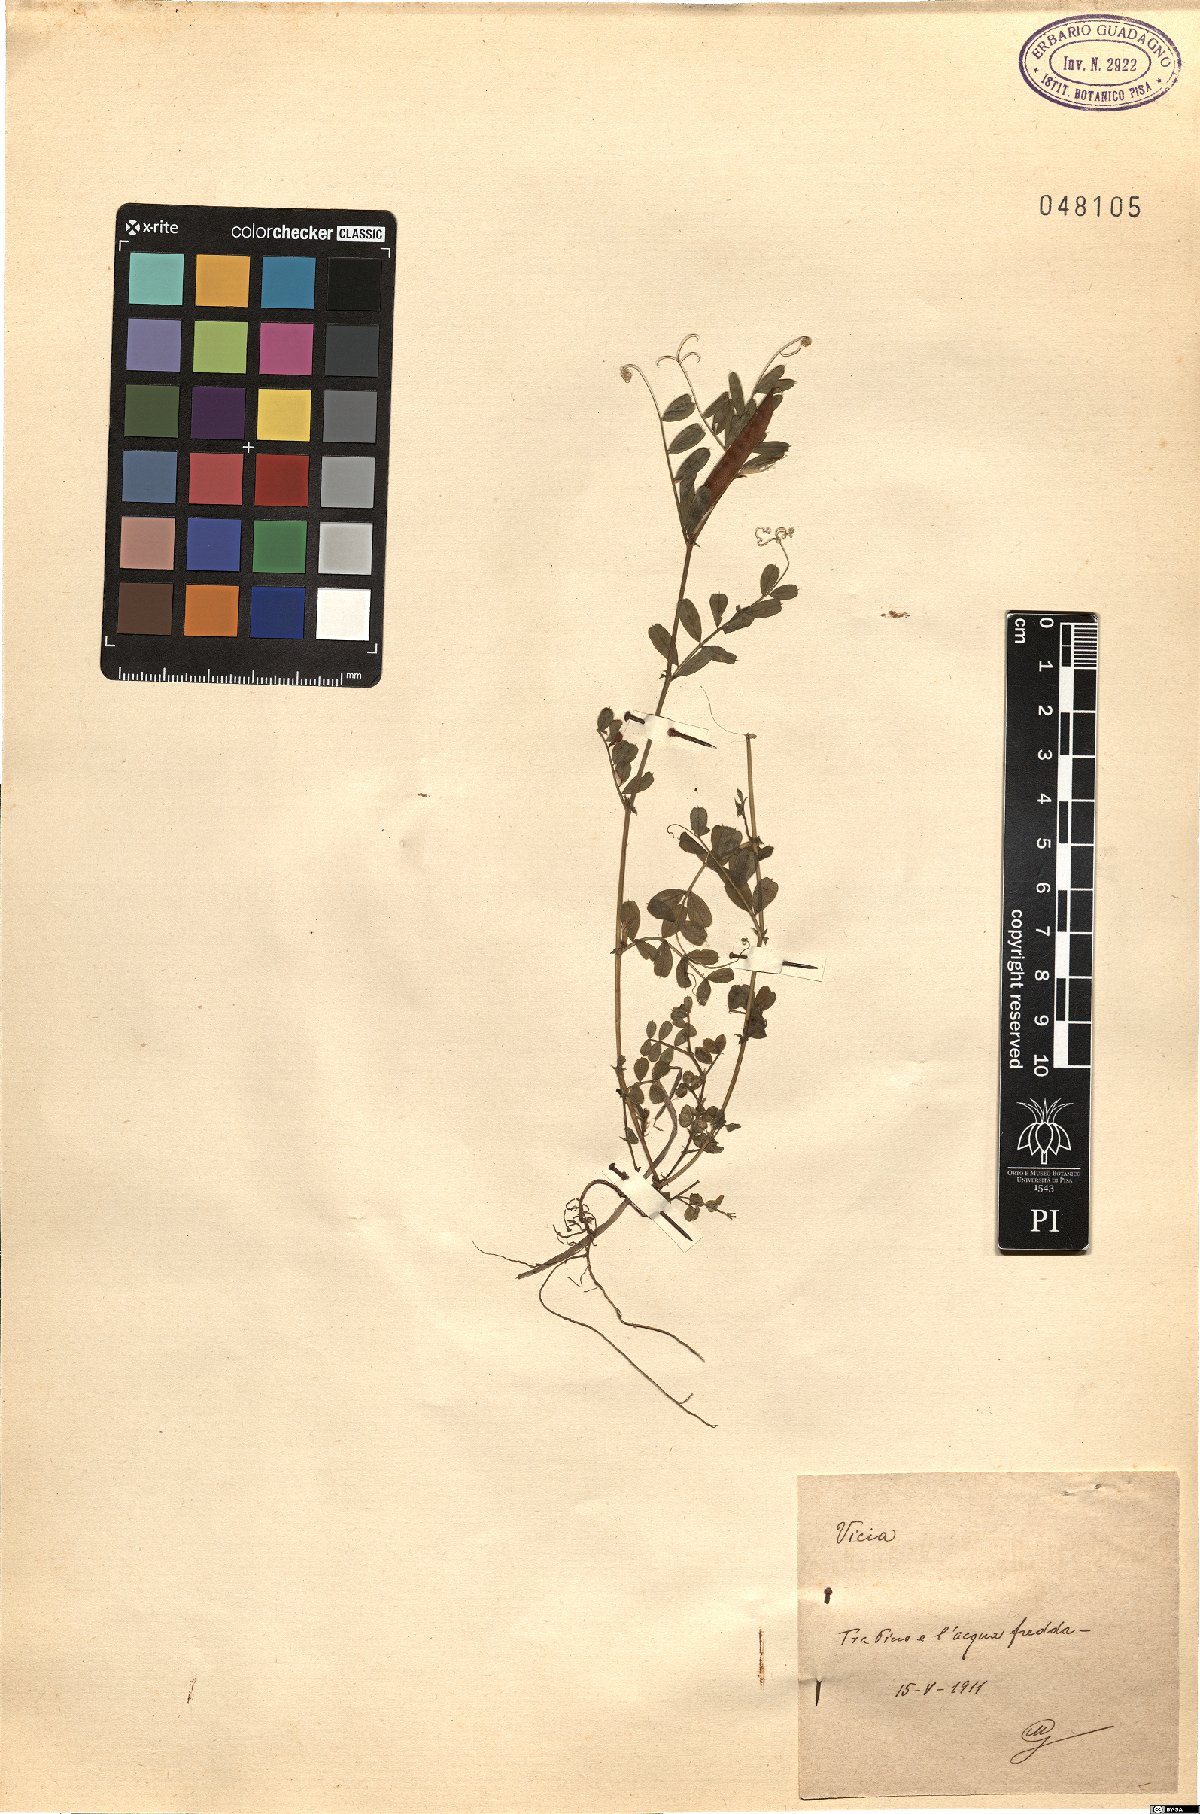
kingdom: Plantae
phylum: Tracheophyta
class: Magnoliopsida
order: Fabales
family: Fabaceae
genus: Vicia
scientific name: Vicia
